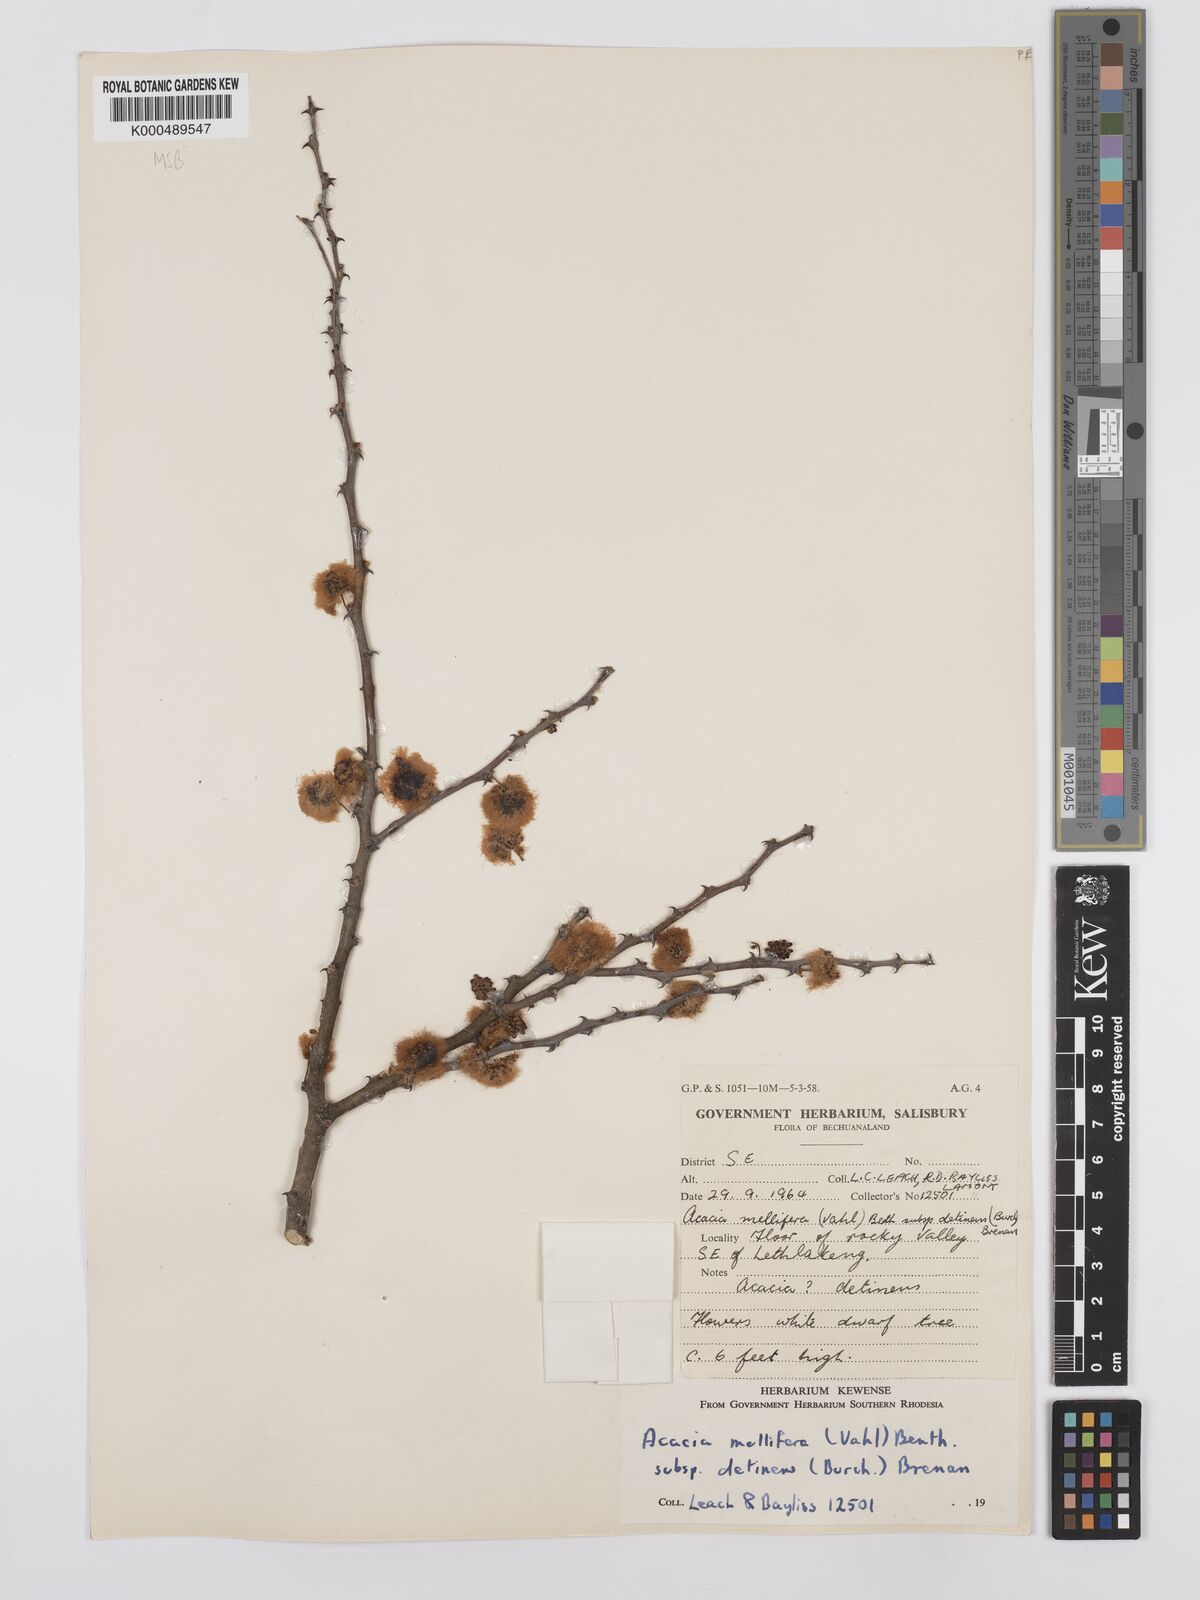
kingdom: Plantae
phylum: Tracheophyta
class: Magnoliopsida
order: Fabales
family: Fabaceae
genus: Senegalia
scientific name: Senegalia mellifera
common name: Hookthorn
